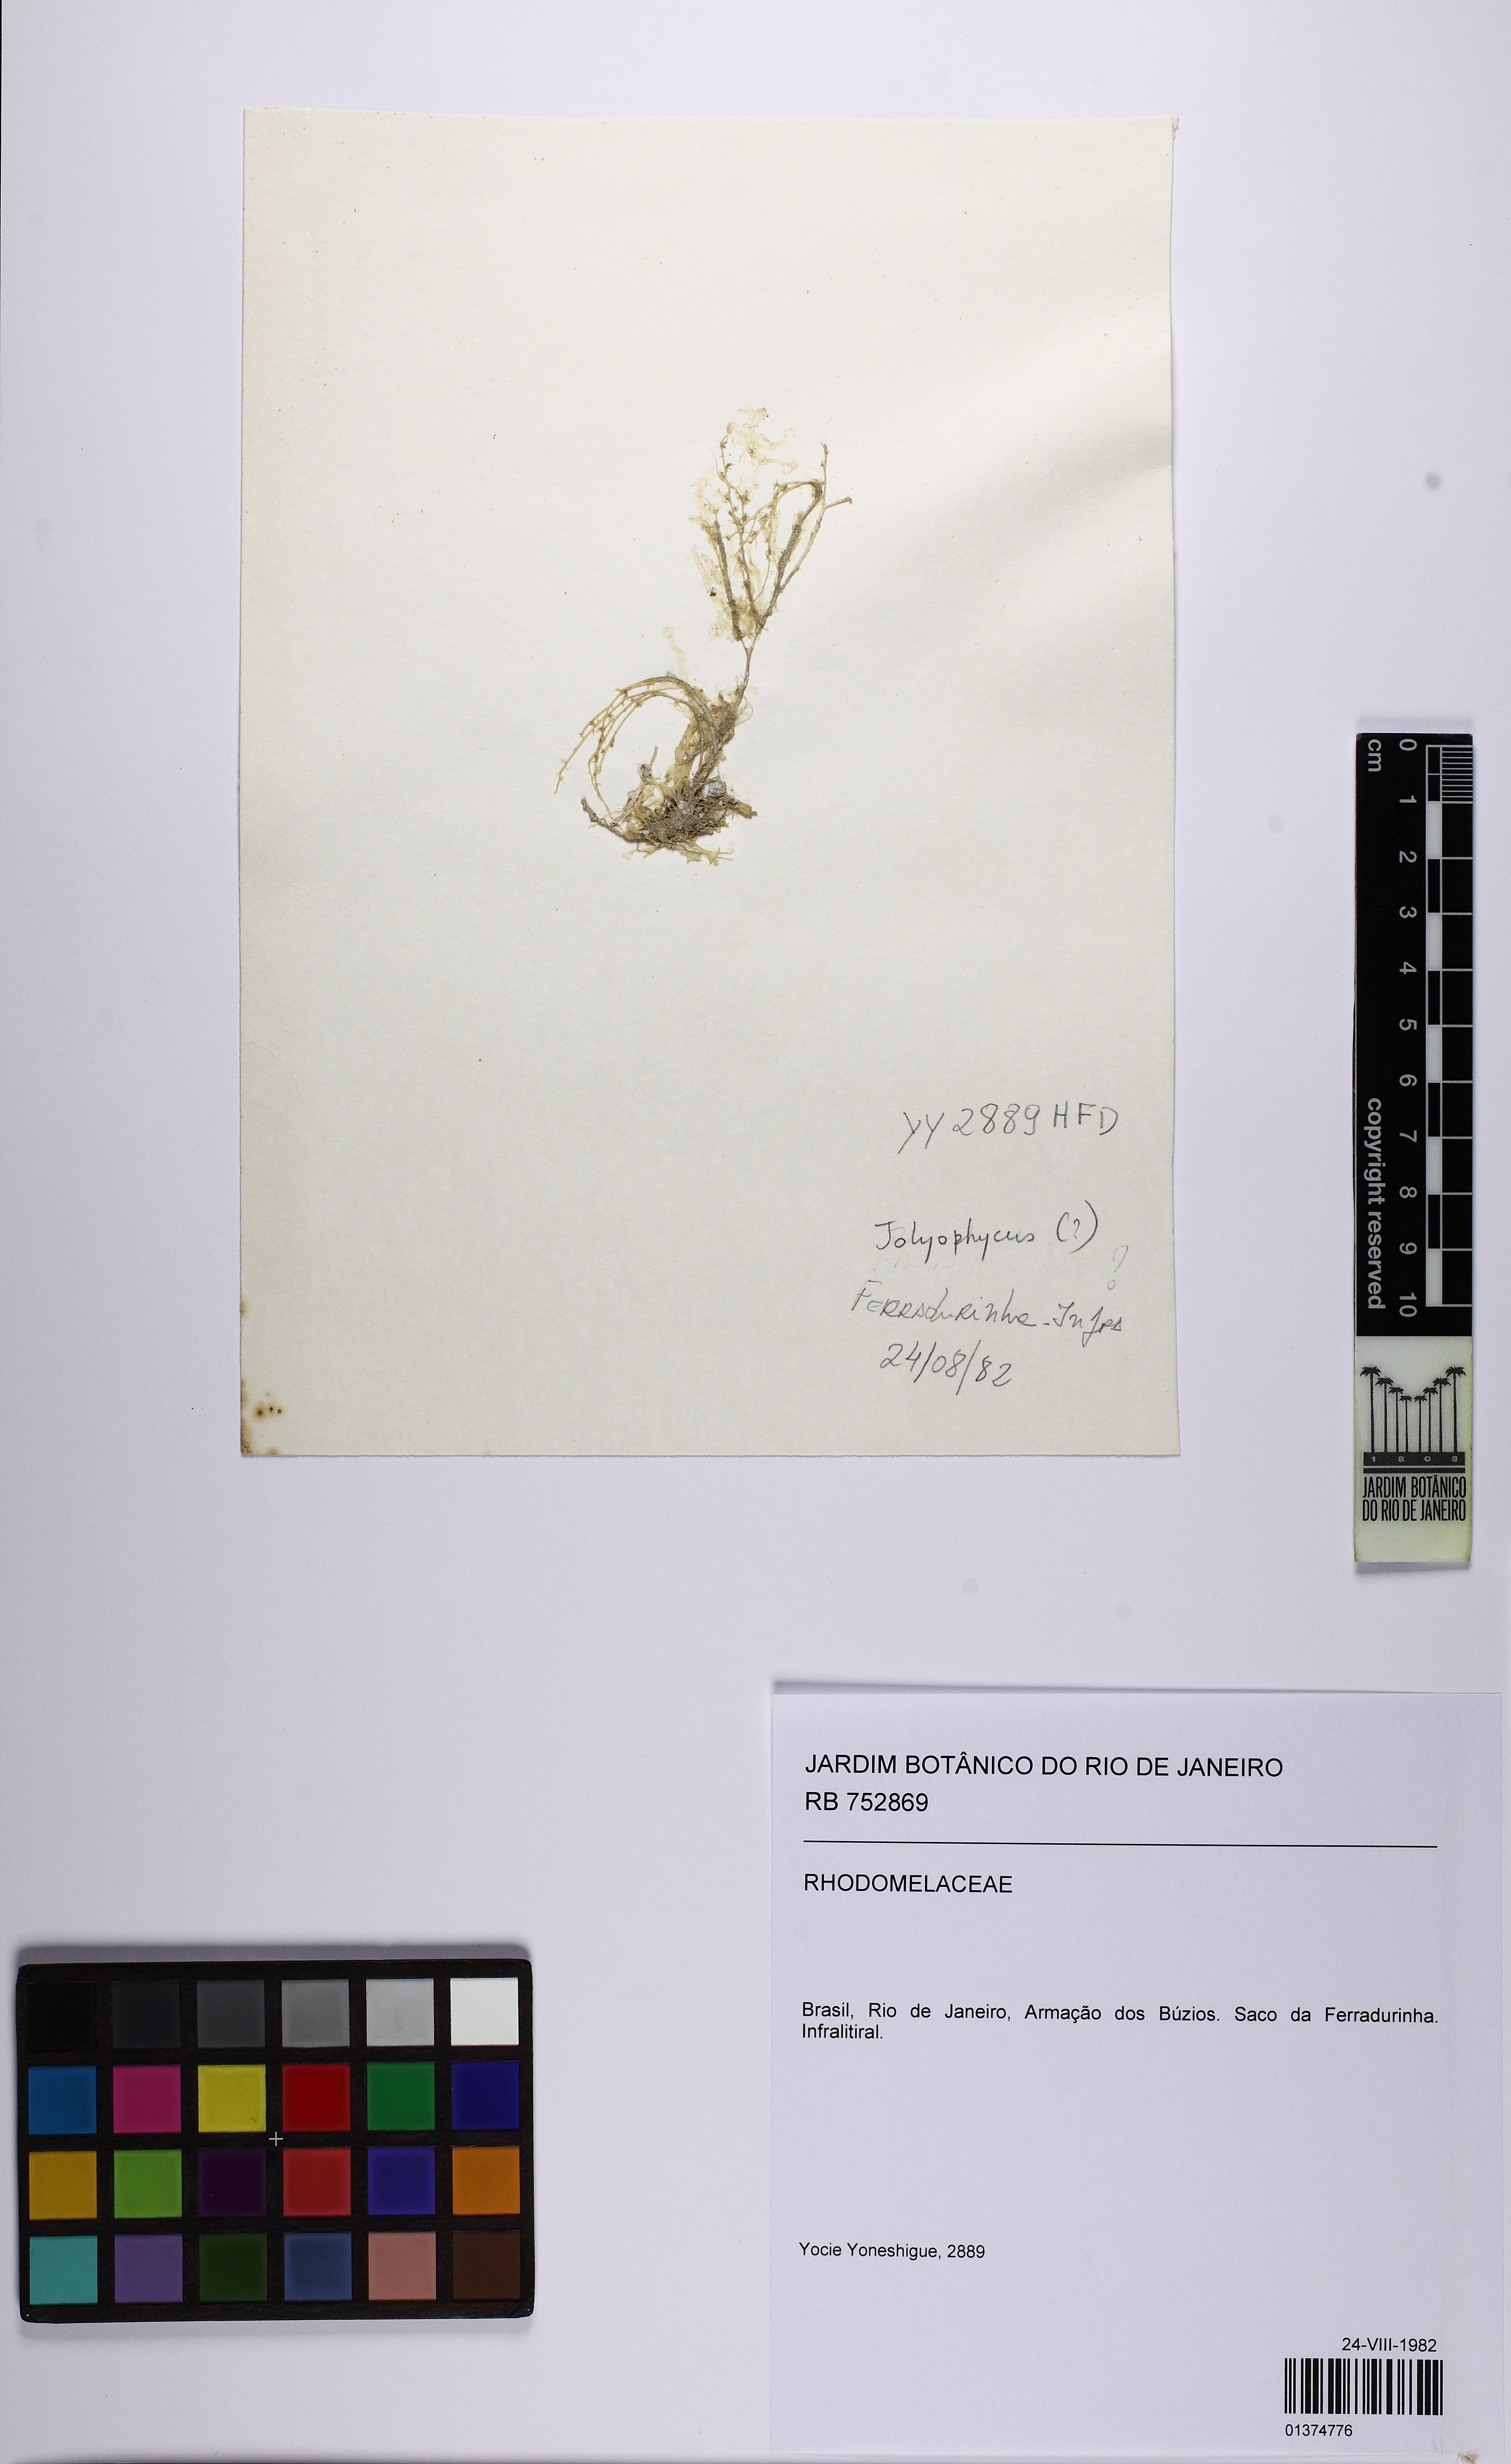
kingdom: Plantae
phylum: Rhodophyta
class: Florideophyceae
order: Ceramiales
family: Rhodomelaceae
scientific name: Rhodomelaceae
